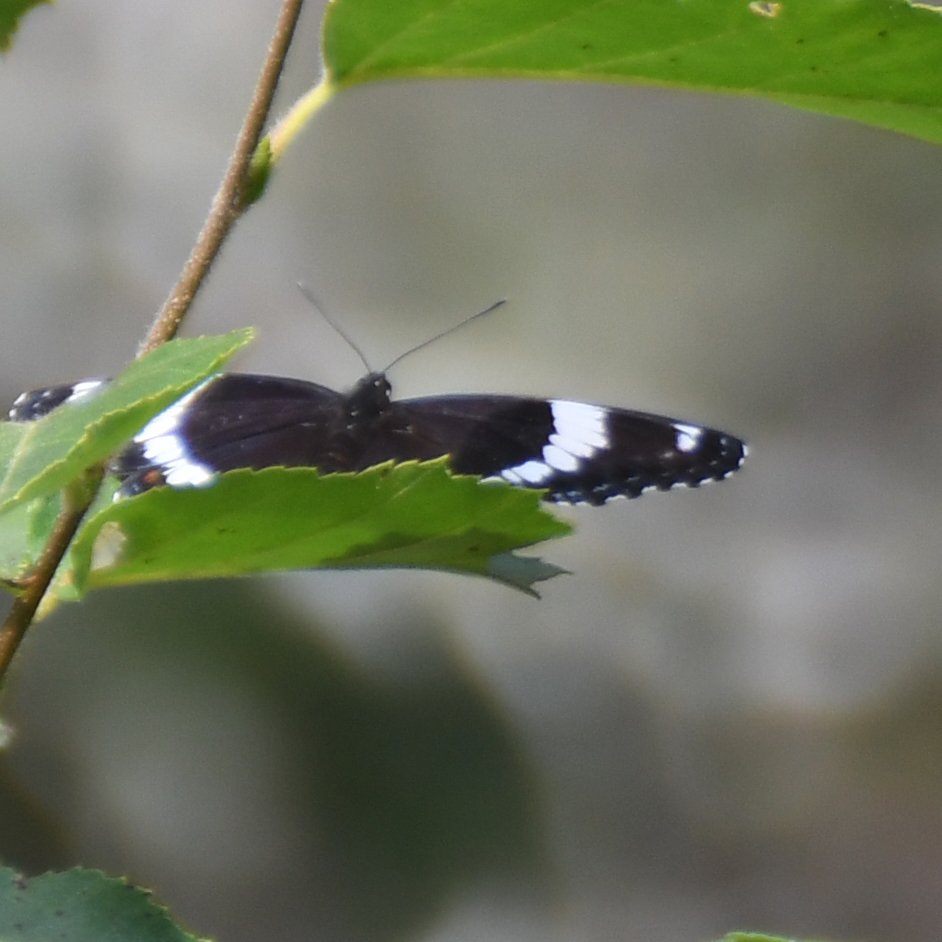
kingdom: Animalia
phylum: Arthropoda
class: Insecta
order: Lepidoptera
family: Nymphalidae
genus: Limenitis
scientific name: Limenitis arthemis
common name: Red-spotted Admiral
